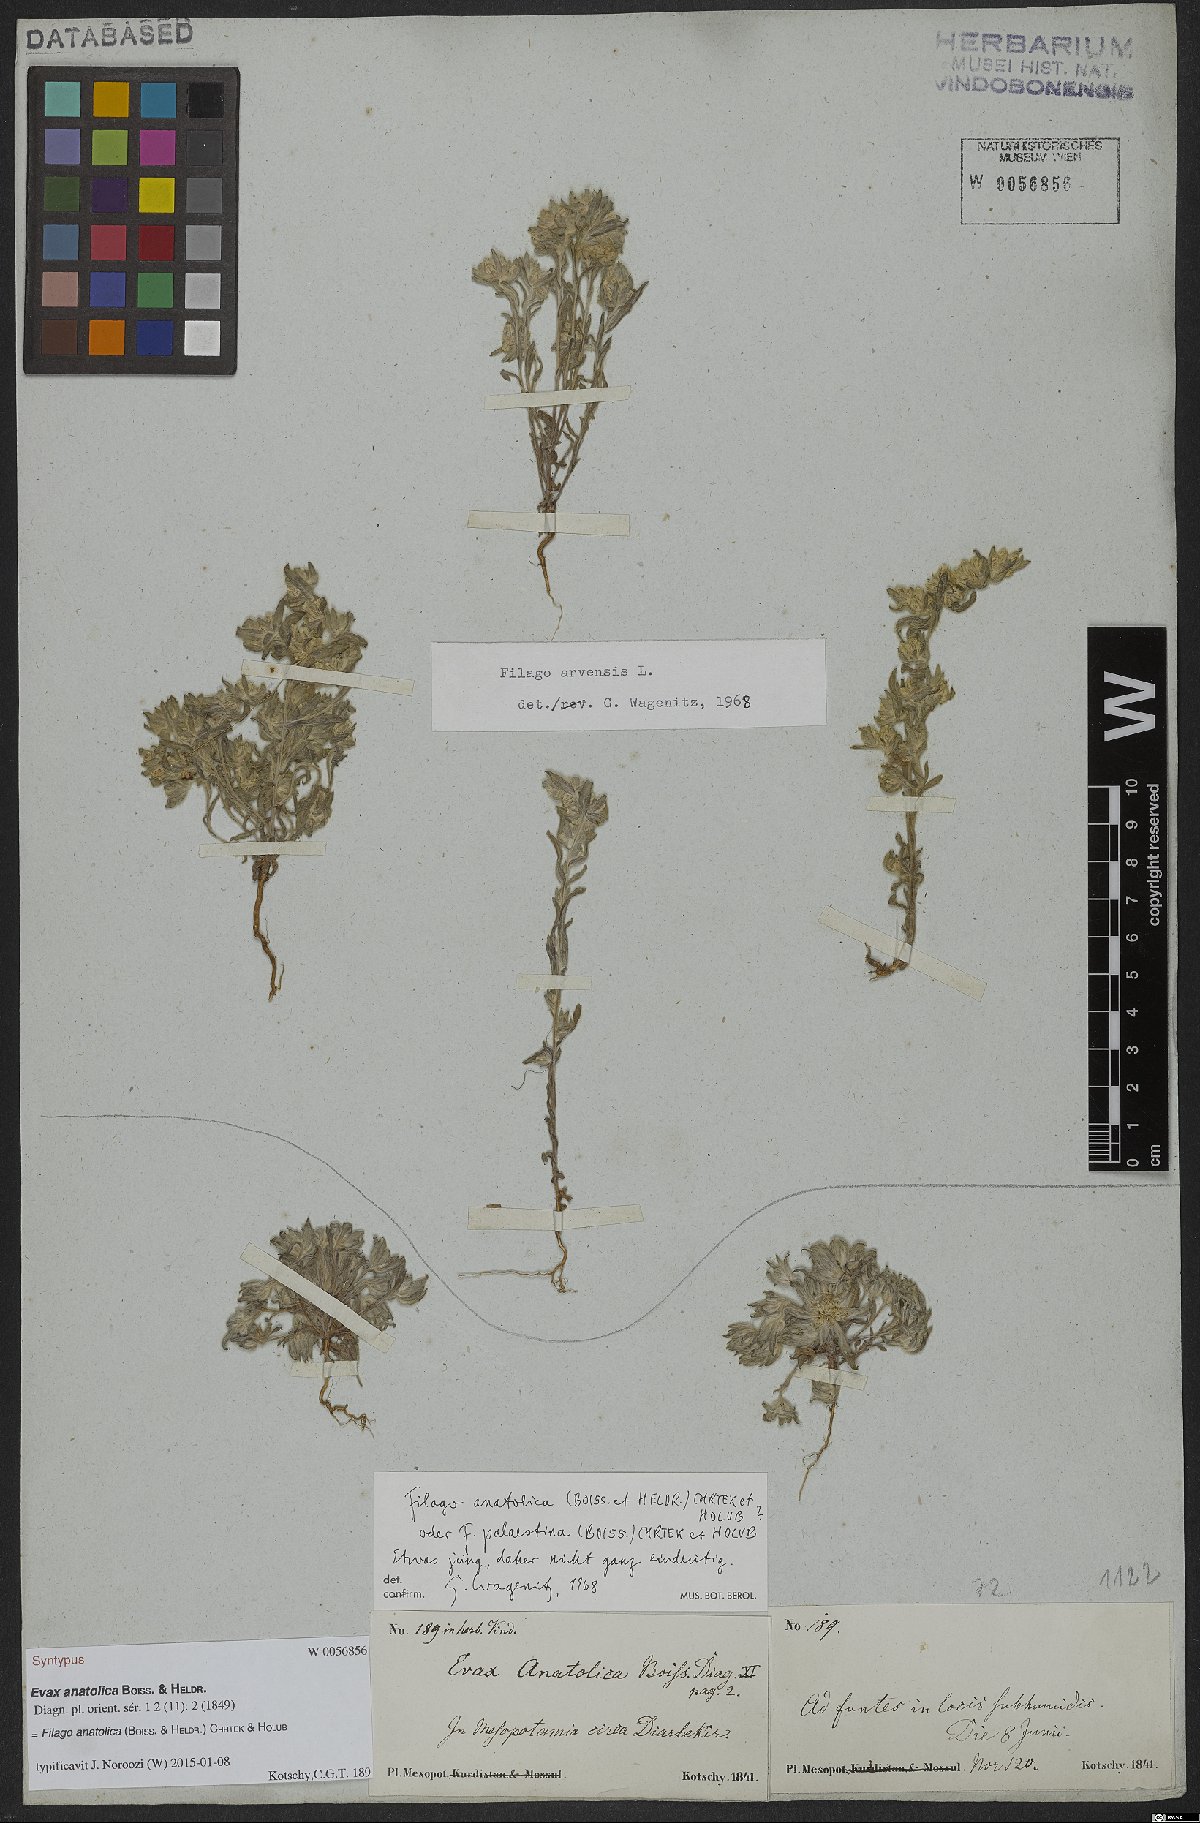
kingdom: Plantae
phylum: Tracheophyta
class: Magnoliopsida
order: Asterales
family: Asteraceae
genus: Filago
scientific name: Filago anatolica
